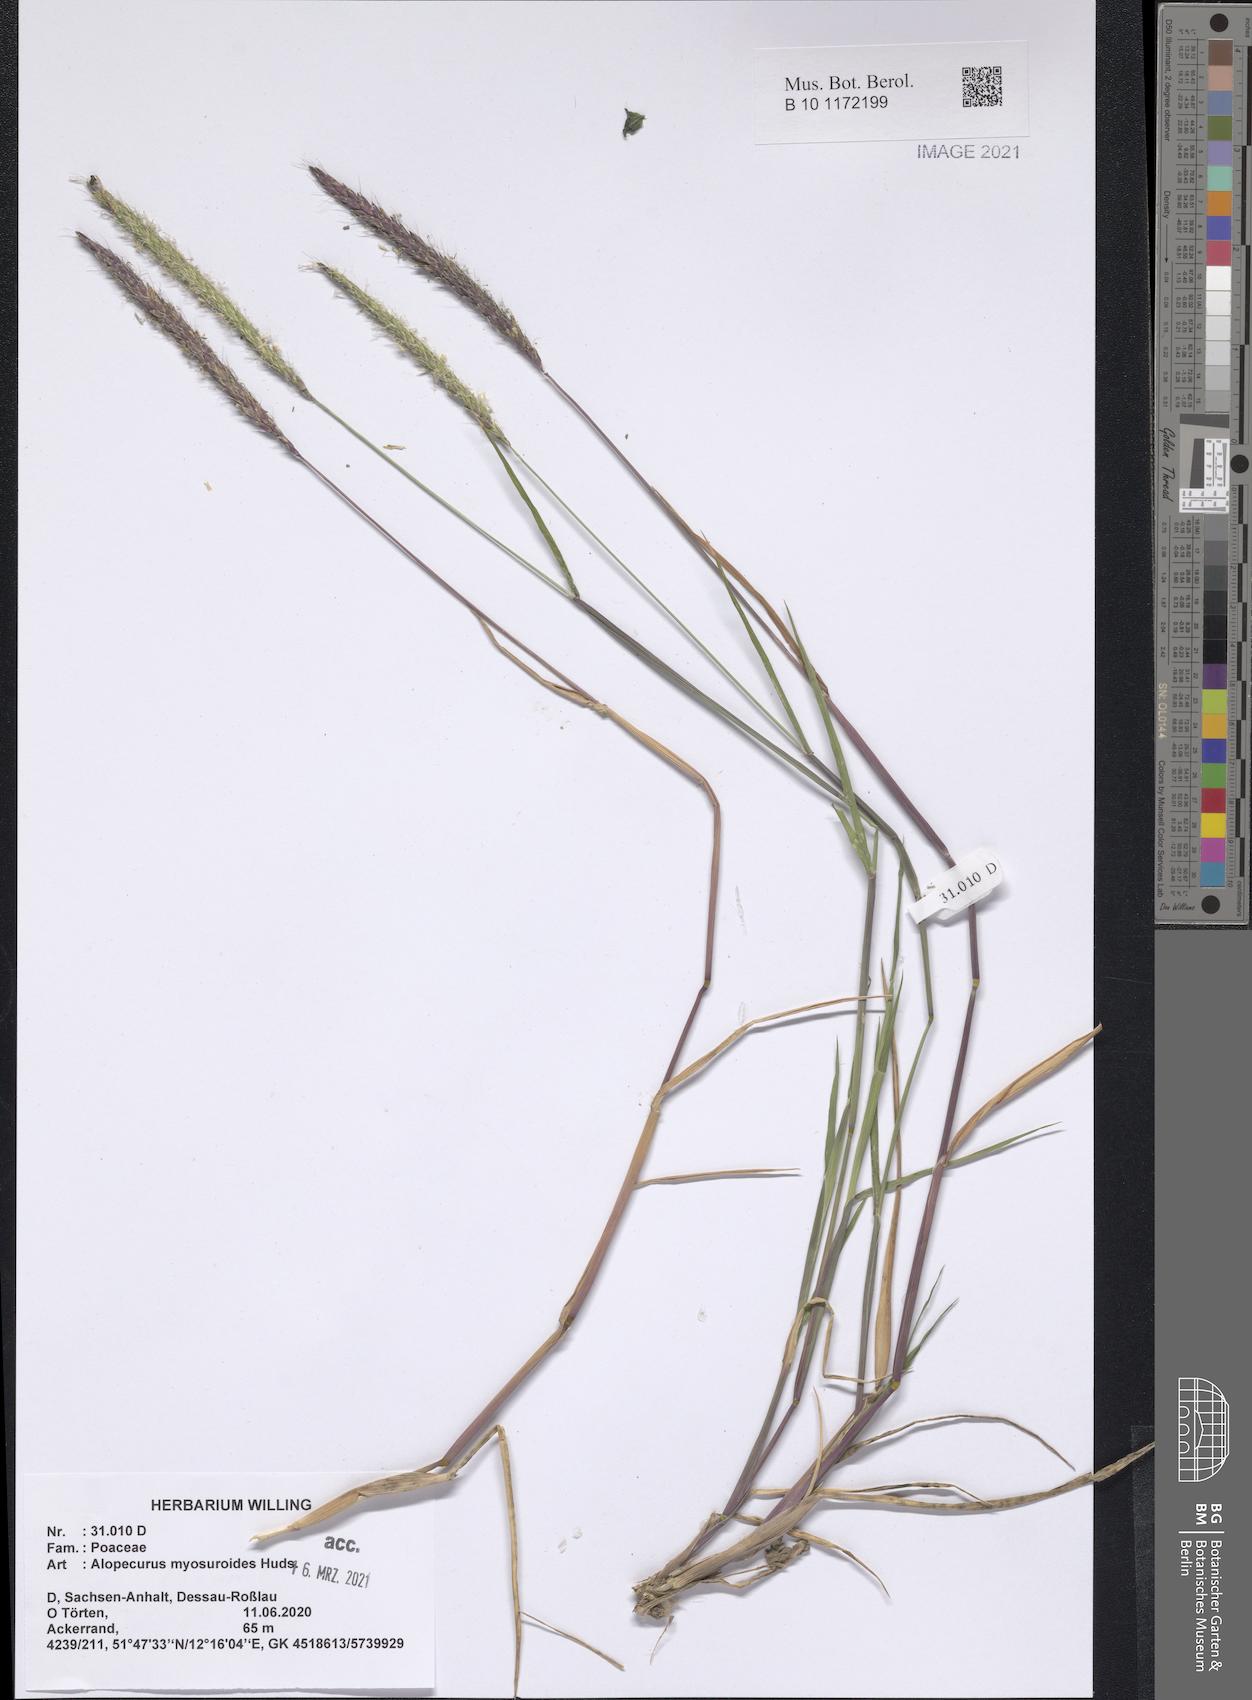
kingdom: Plantae
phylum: Tracheophyta
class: Liliopsida
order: Poales
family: Poaceae
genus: Alopecurus
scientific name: Alopecurus myosuroides
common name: Black-grass
